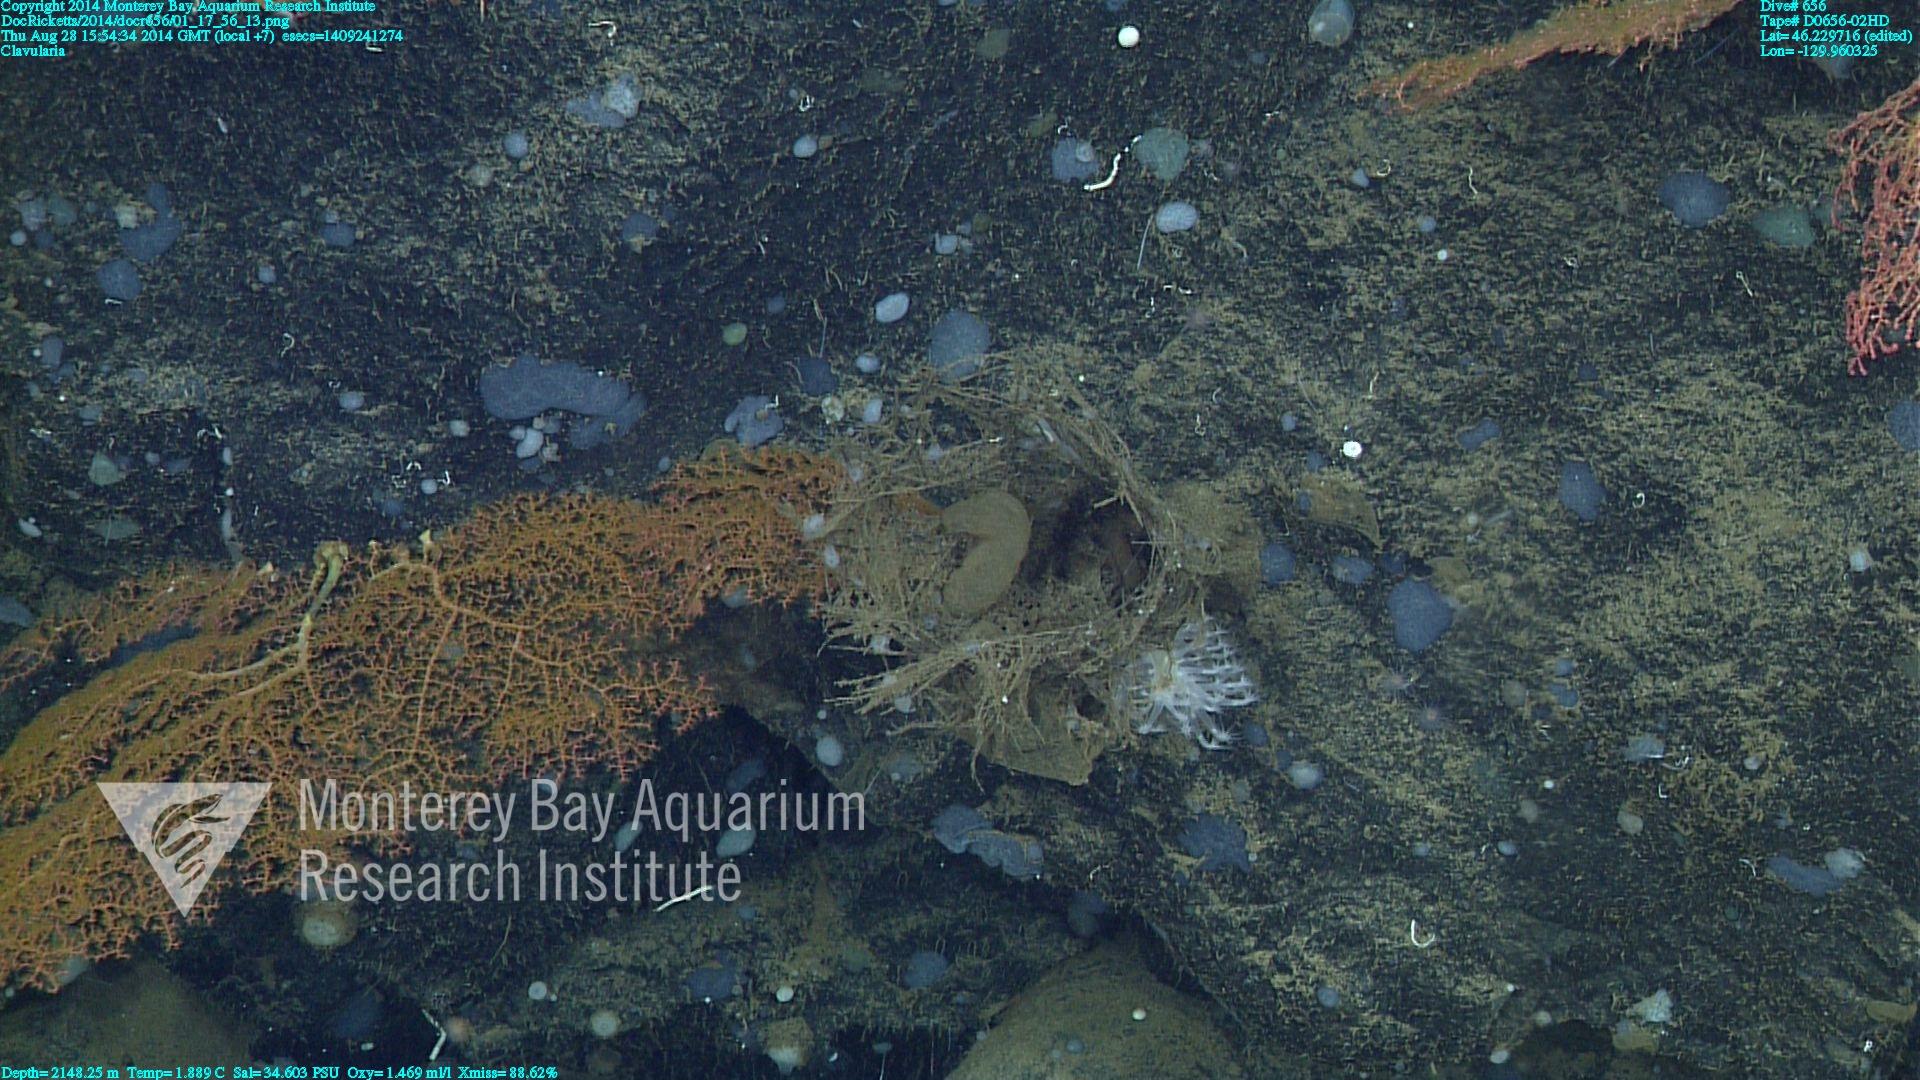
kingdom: Animalia
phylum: Cnidaria
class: Anthozoa
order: Malacalcyonacea
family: Clavulariidae
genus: Clavularia
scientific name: Clavularia
